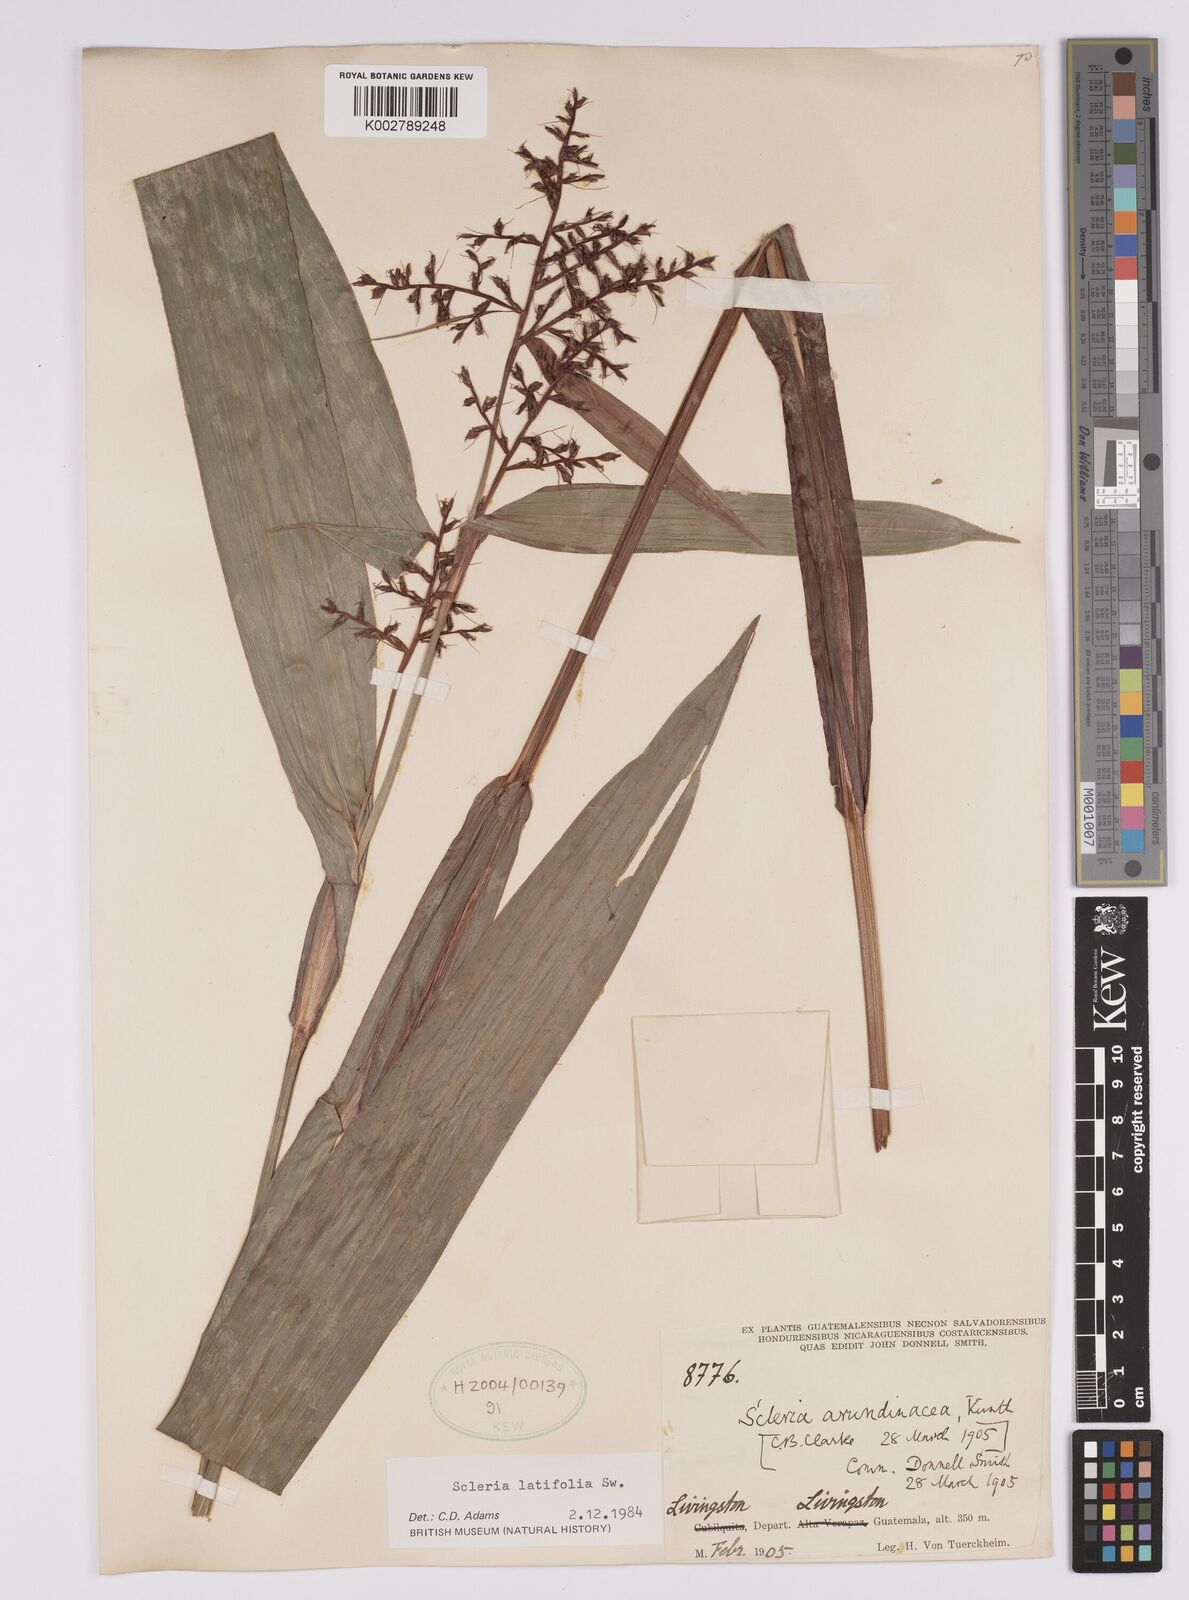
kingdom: Plantae
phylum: Tracheophyta
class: Liliopsida
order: Poales
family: Cyperaceae
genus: Scleria
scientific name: Scleria latifolia
